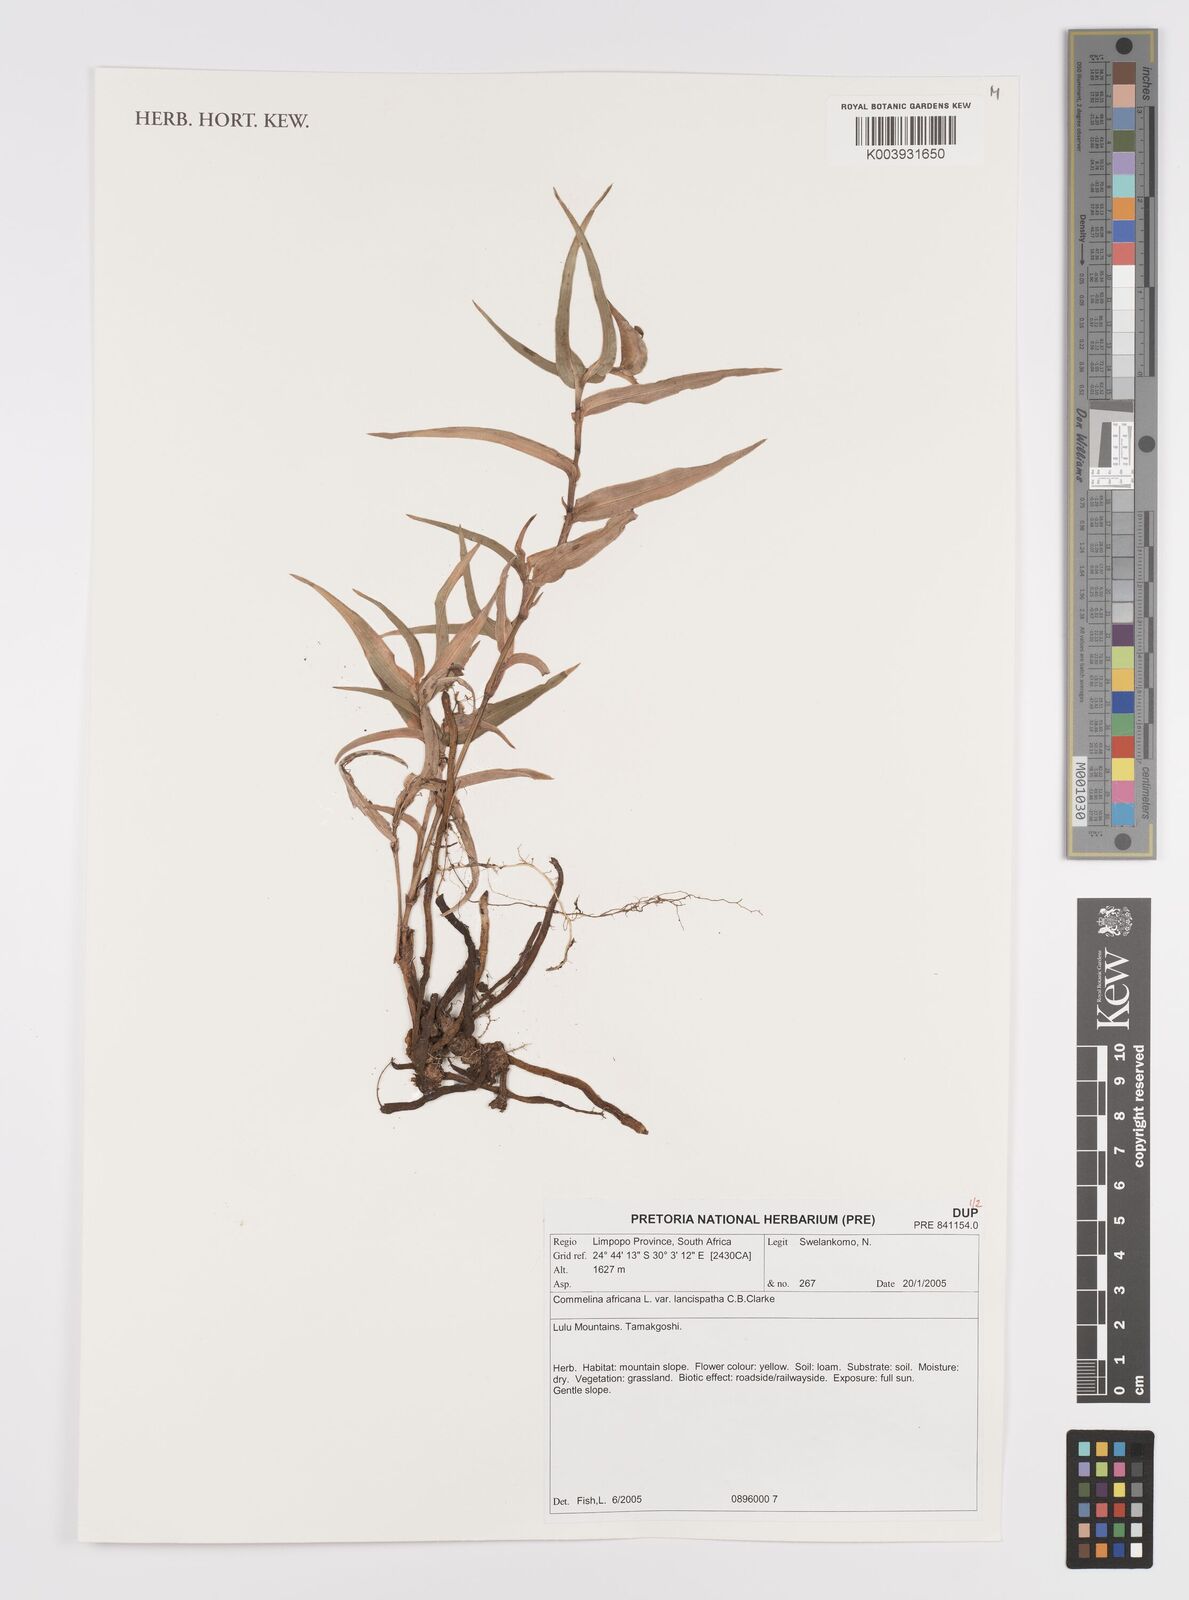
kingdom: Plantae
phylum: Tracheophyta
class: Liliopsida
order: Commelinales
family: Commelinaceae
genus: Commelina
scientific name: Commelina africana
